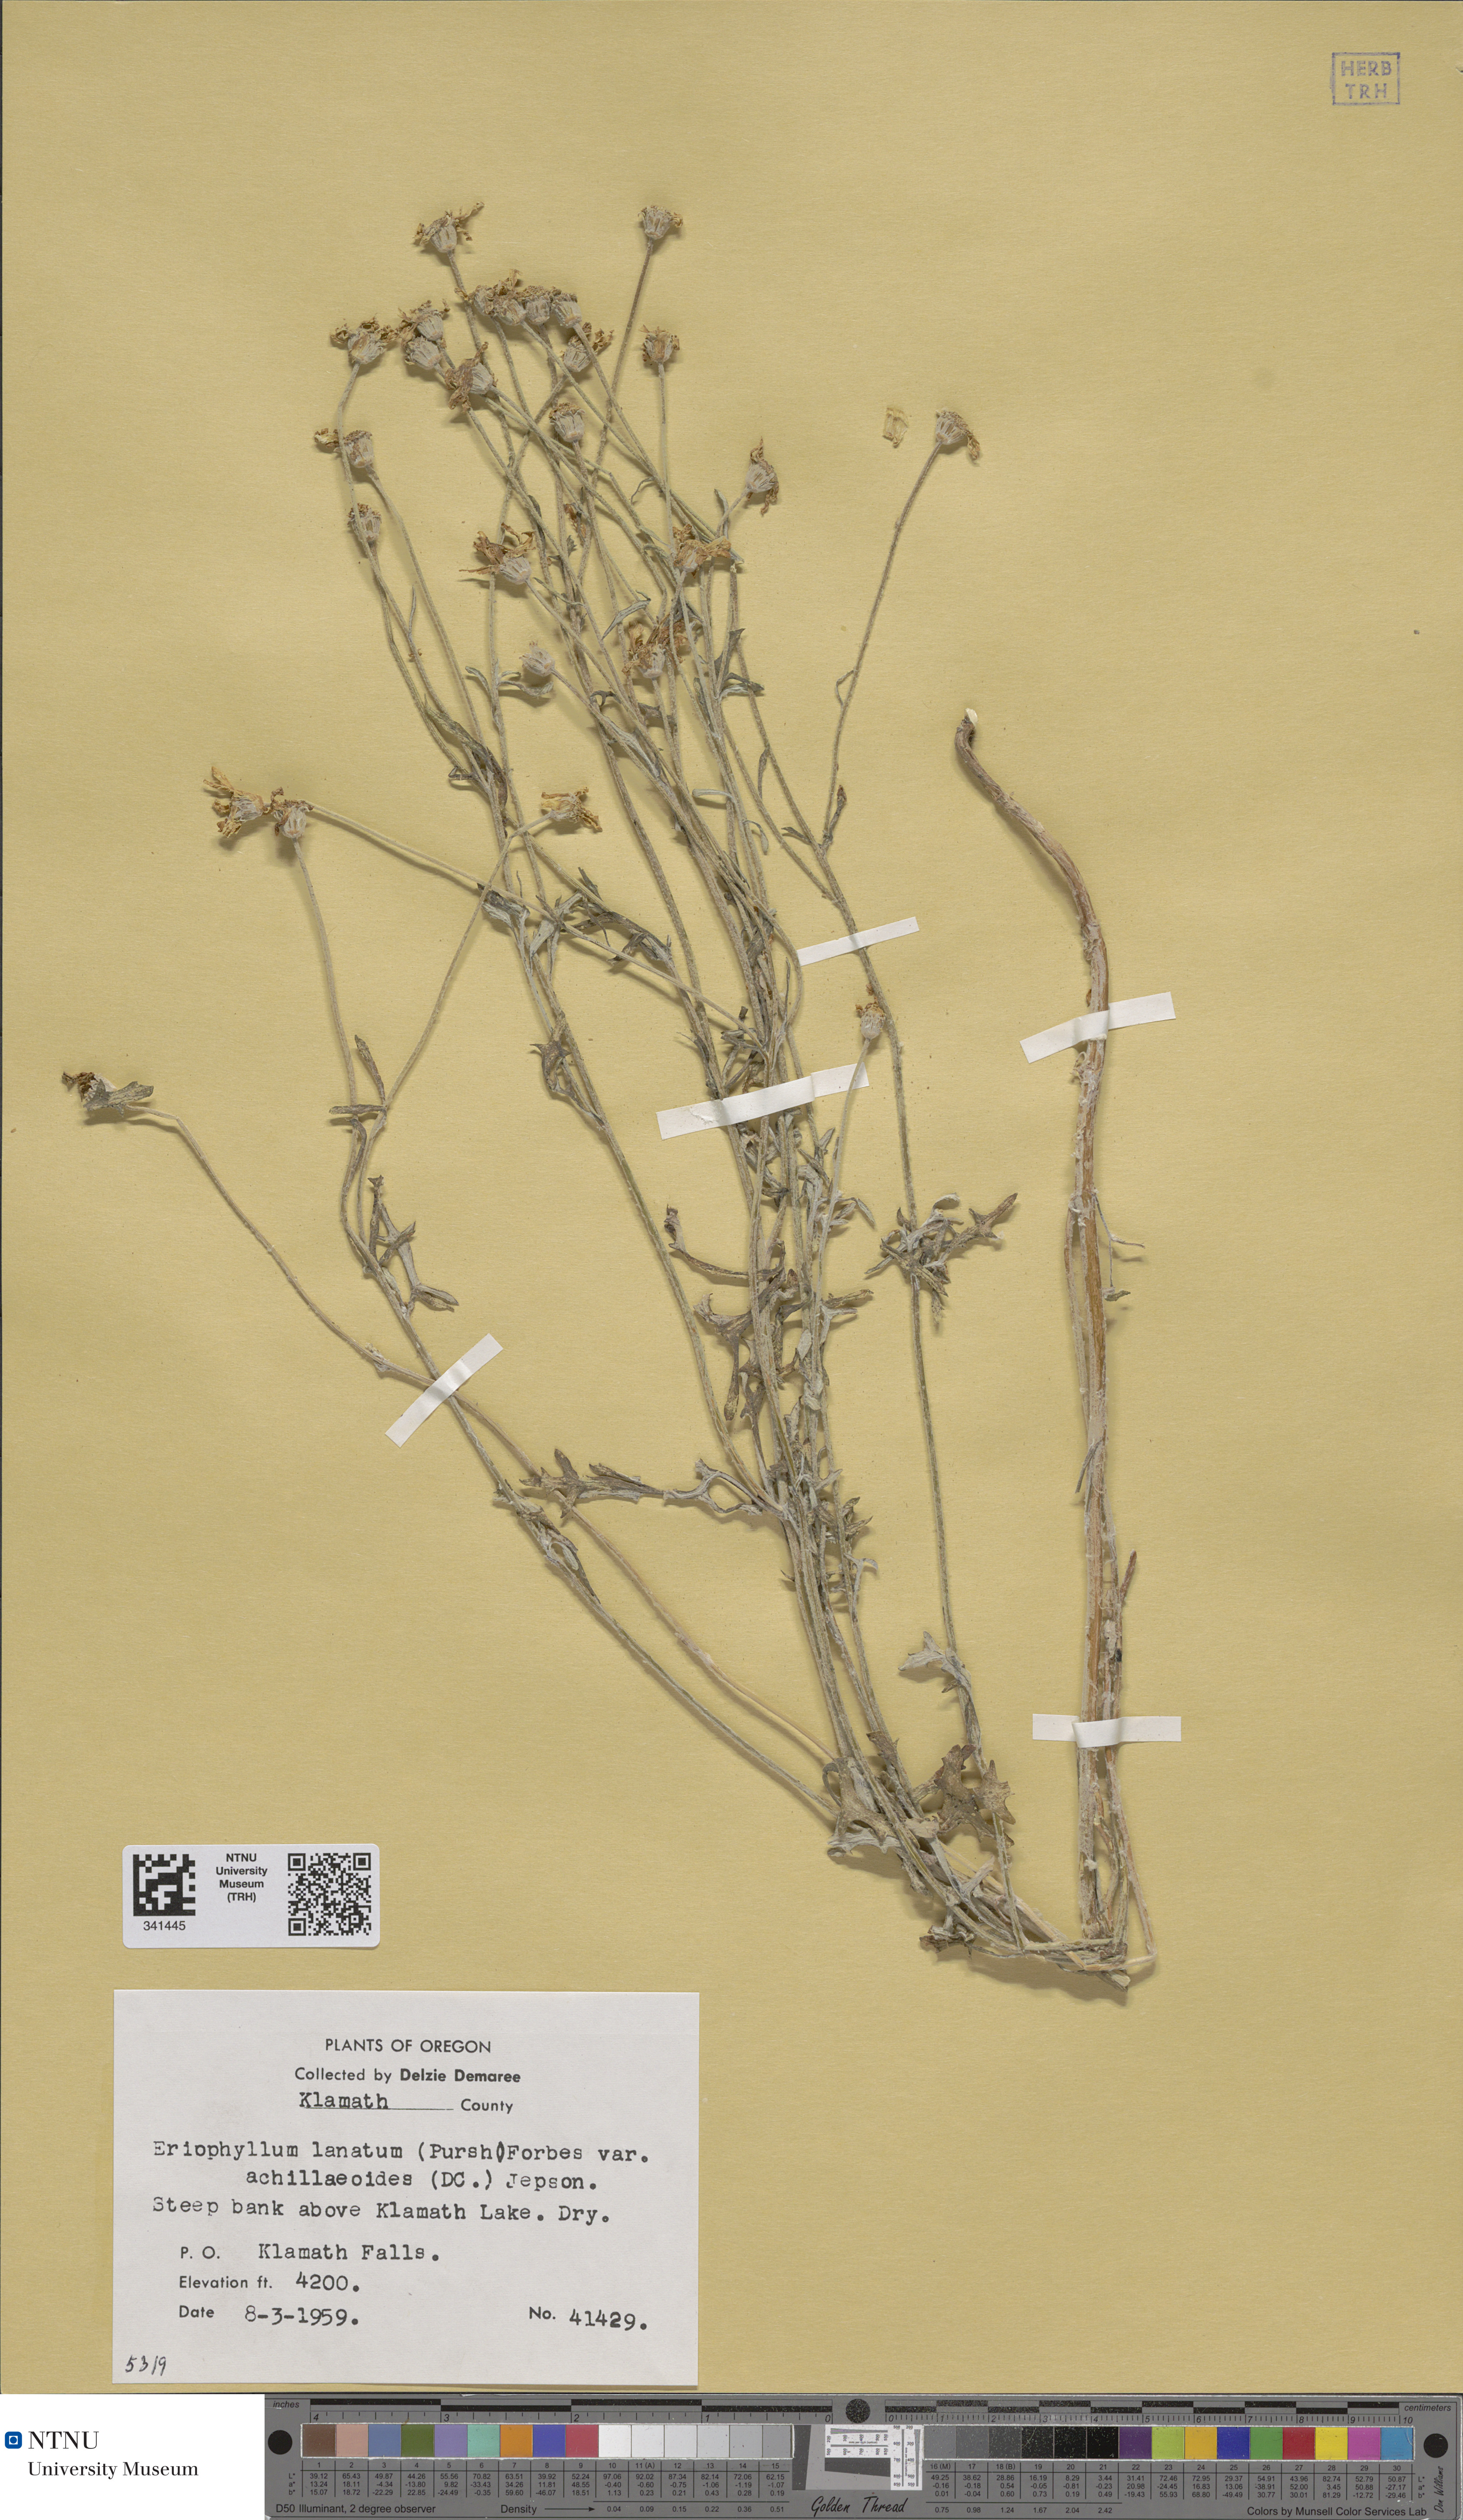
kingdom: Plantae
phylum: Tracheophyta
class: Magnoliopsida
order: Asterales
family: Asteraceae
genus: Eriophyllum
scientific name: Eriophyllum lanatum
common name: Common woolly-sunflower
